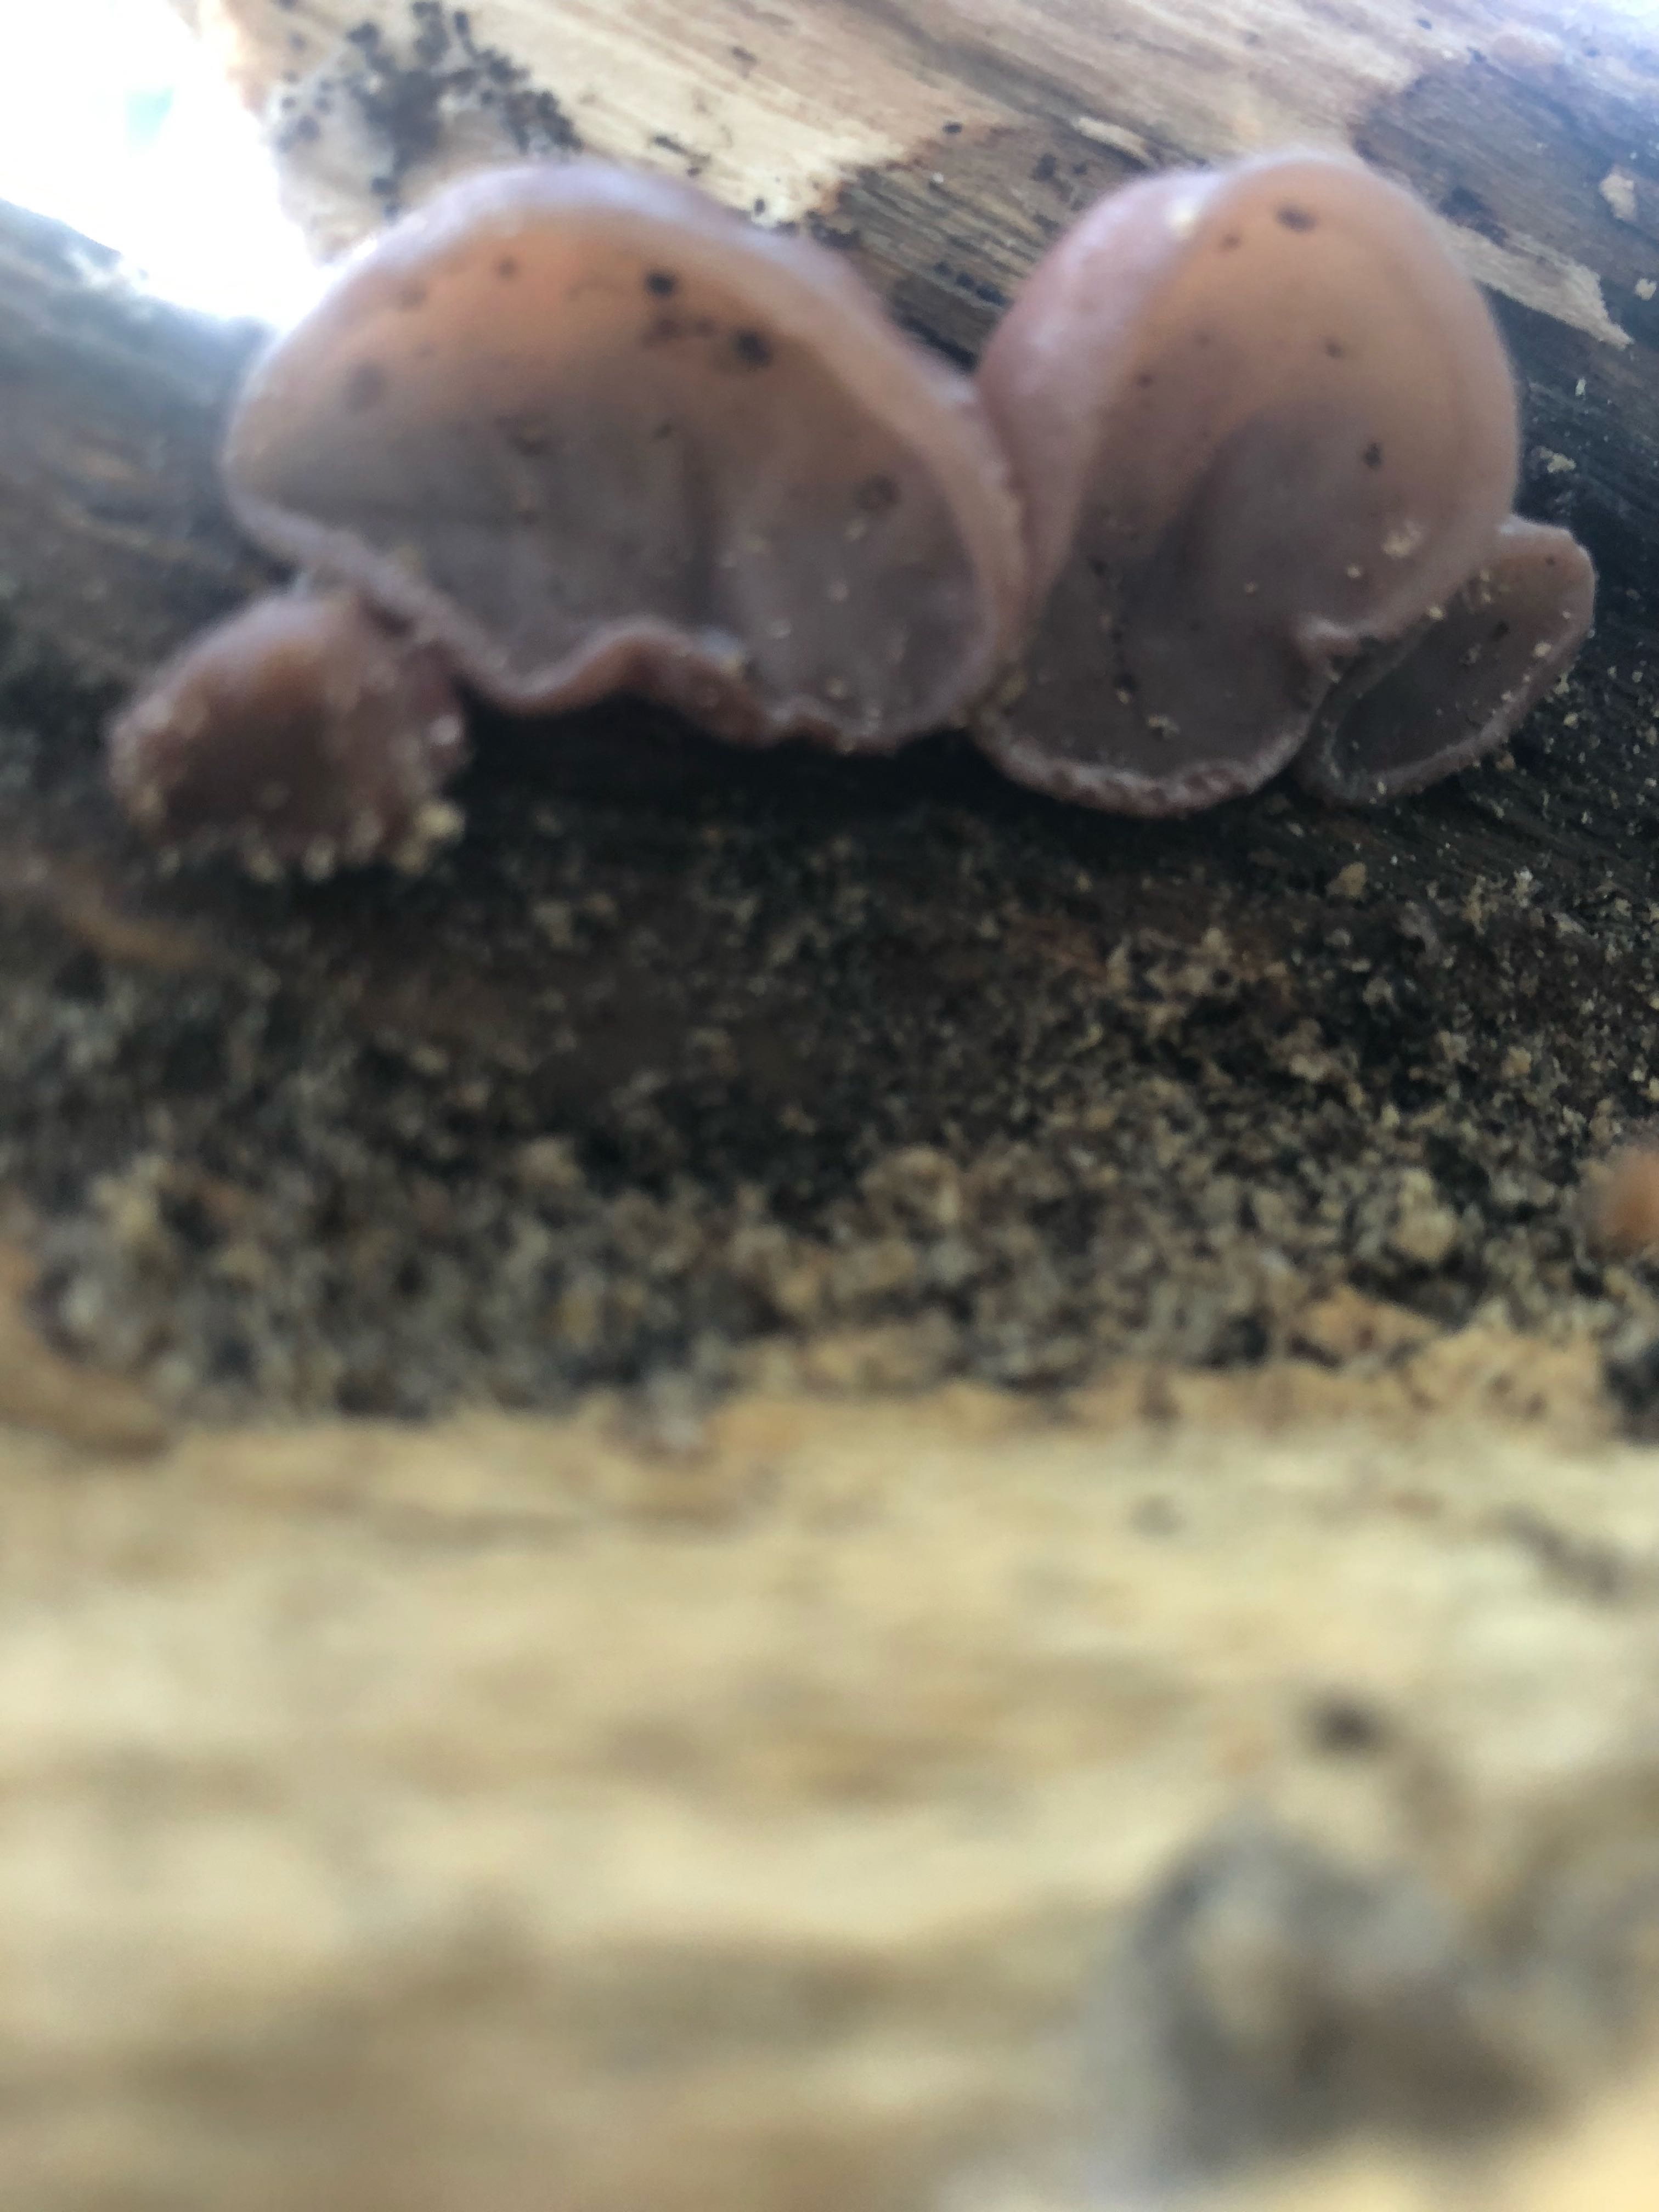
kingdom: Fungi
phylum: Basidiomycota
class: Agaricomycetes
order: Auriculariales
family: Auriculariaceae
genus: Auricularia
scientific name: Auricularia auricula-judae
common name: almindelig judasøre
